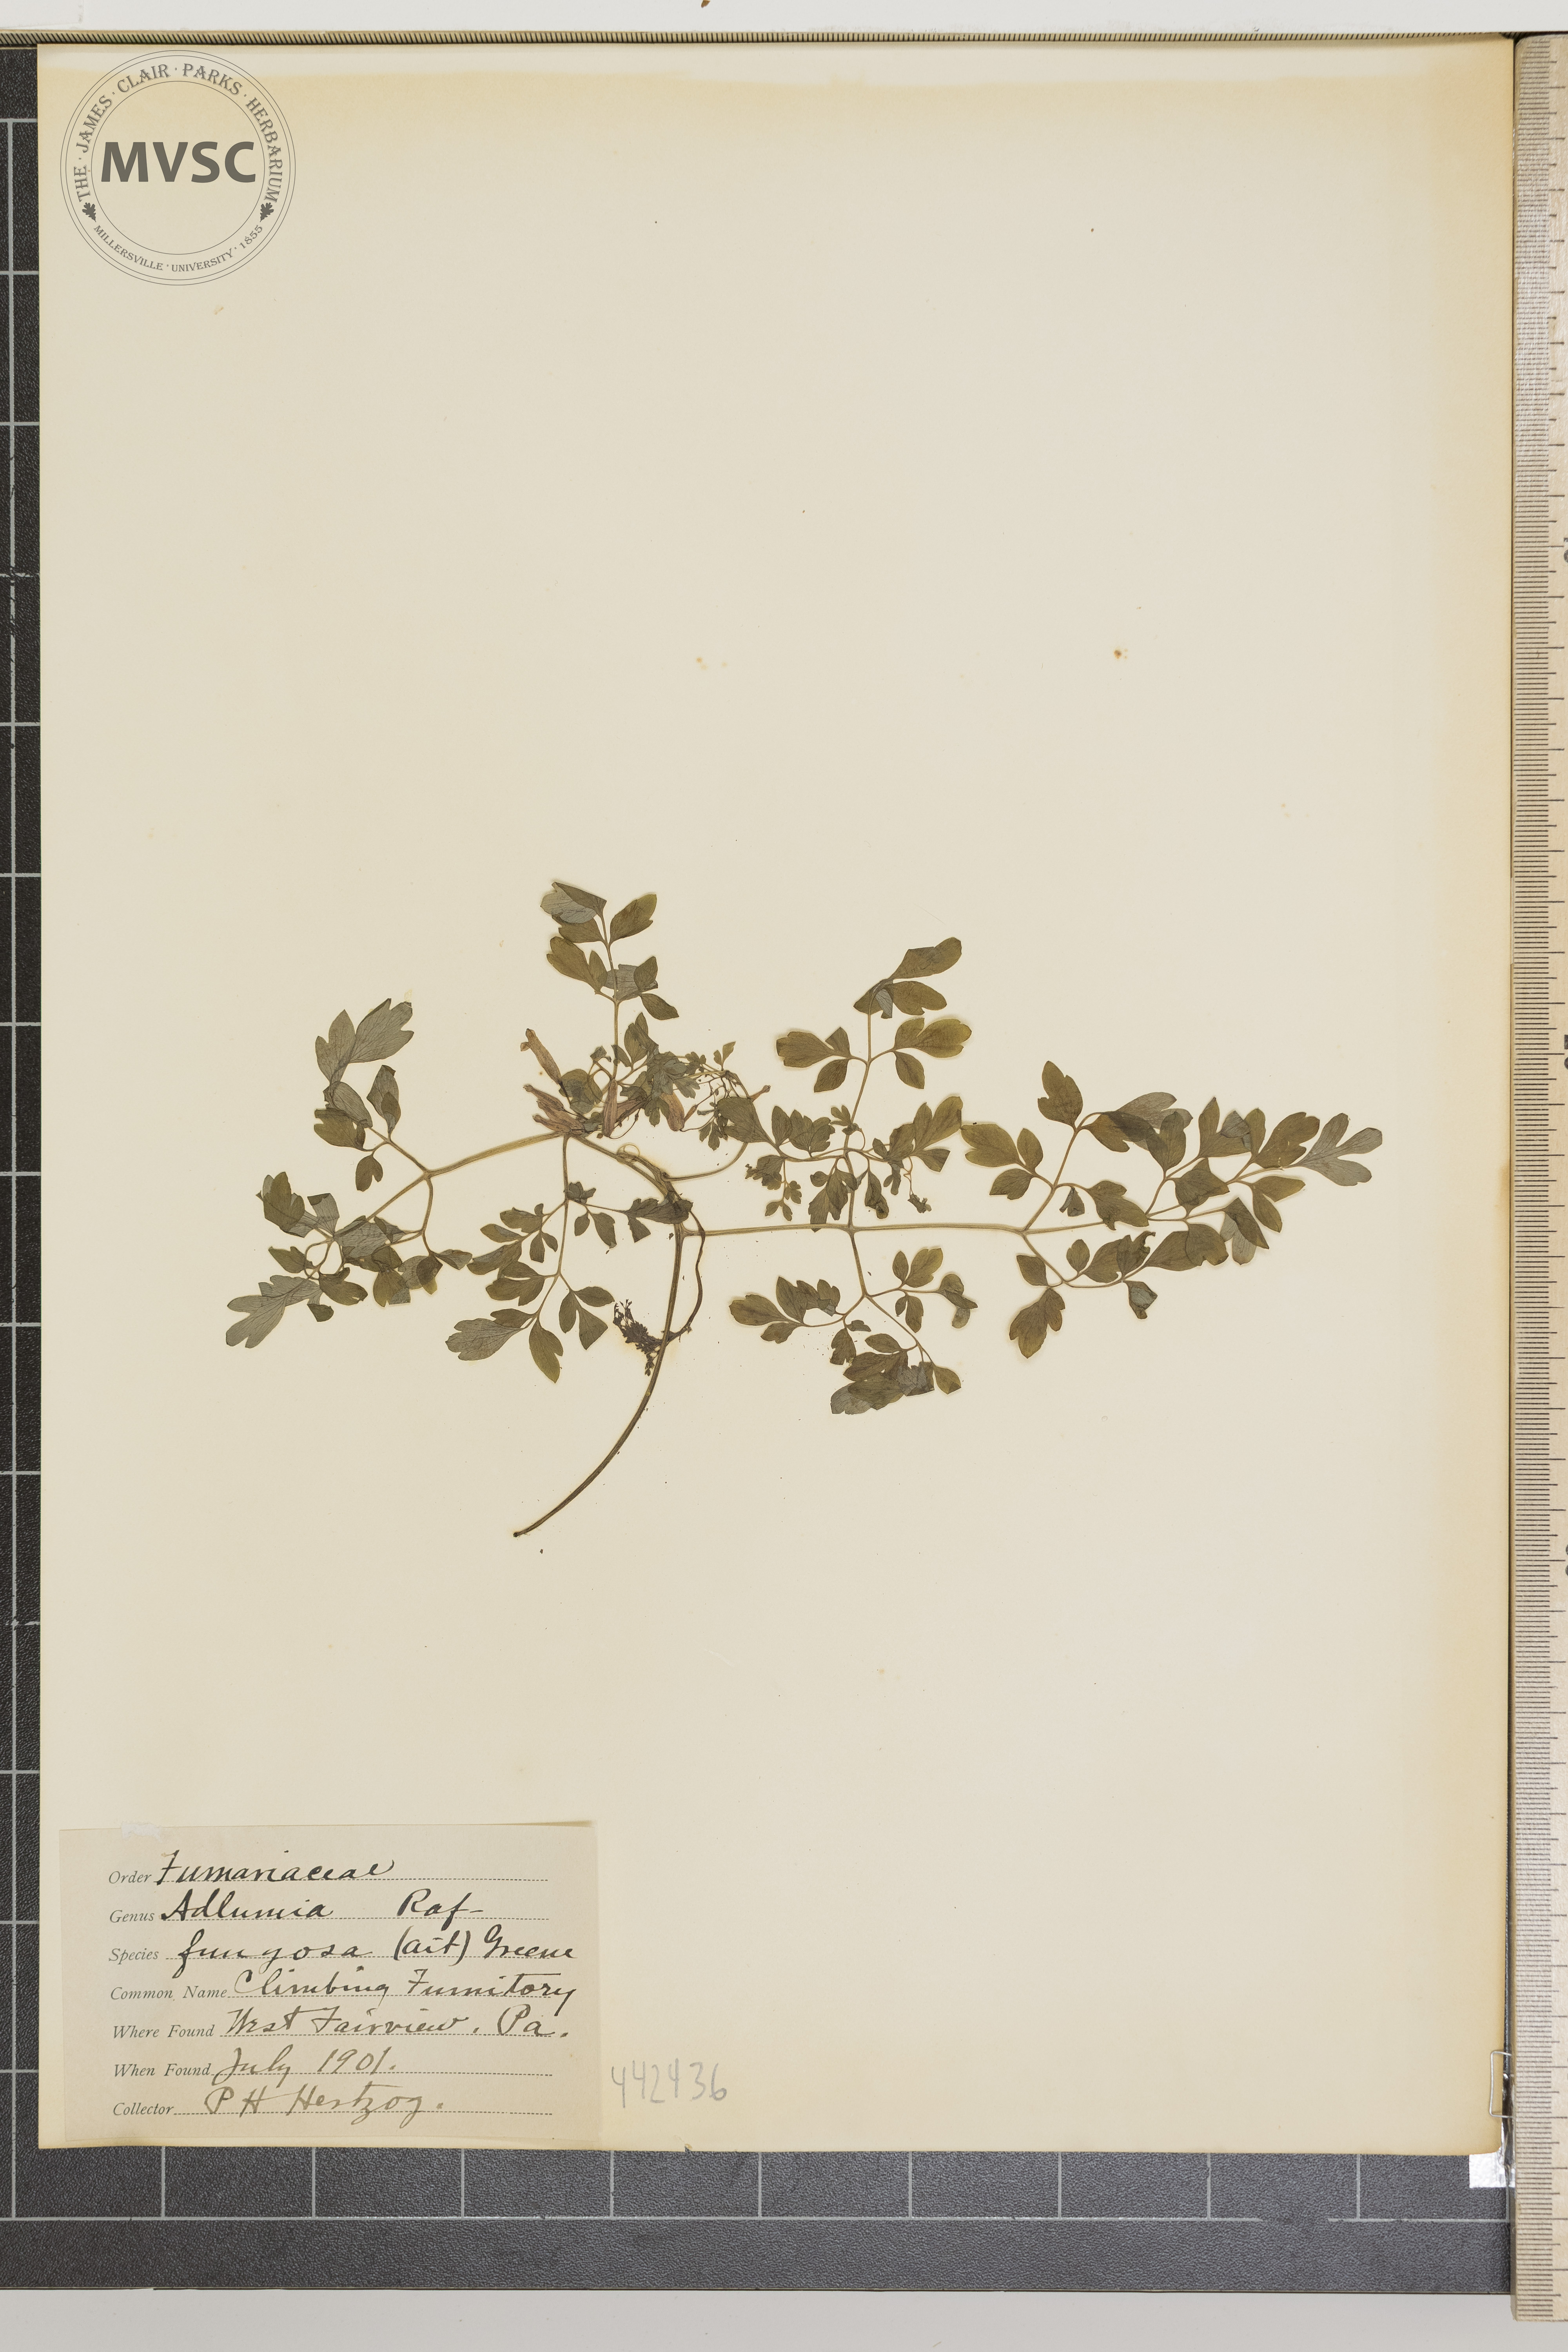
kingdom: Plantae
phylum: Tracheophyta
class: Magnoliopsida
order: Ranunculales
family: Papaveraceae
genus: Adlumia
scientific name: Adlumia fungosa
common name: Climbing fumitory
